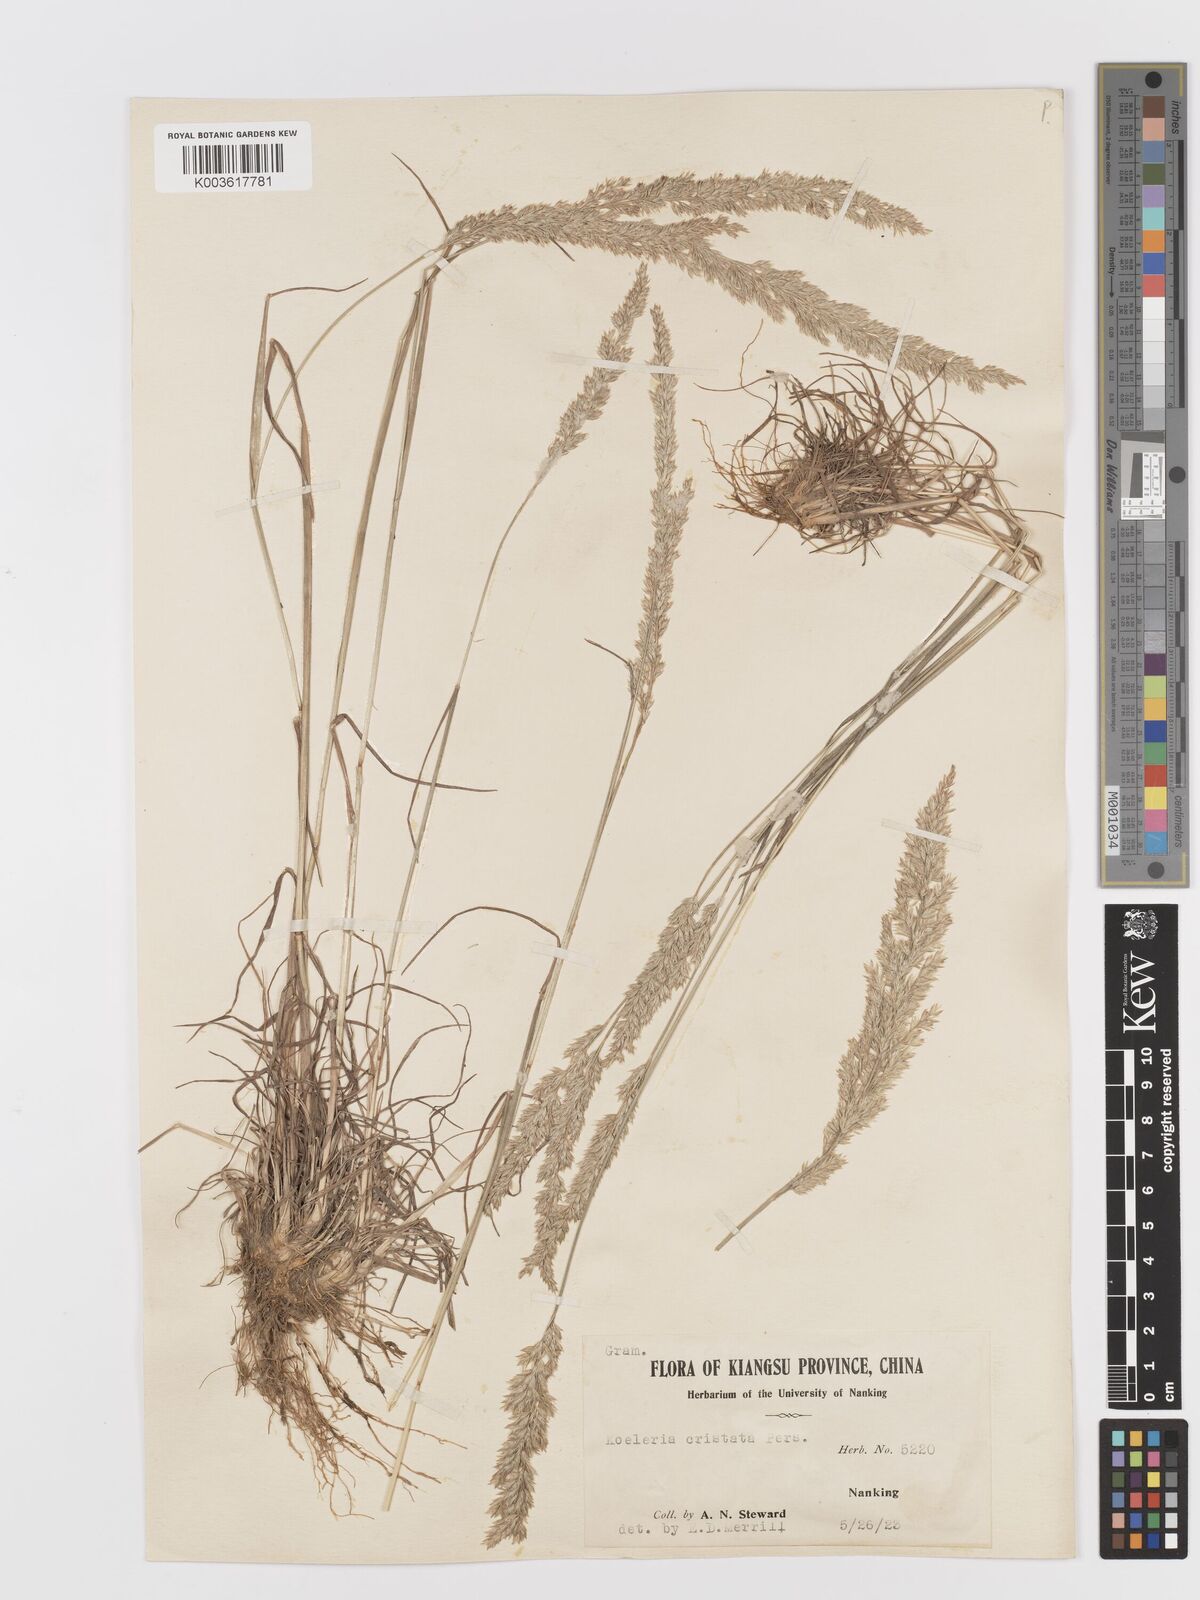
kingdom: Plantae
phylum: Tracheophyta
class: Liliopsida
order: Poales
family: Poaceae
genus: Koeleria
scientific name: Koeleria macrantha
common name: Crested hair-grass
